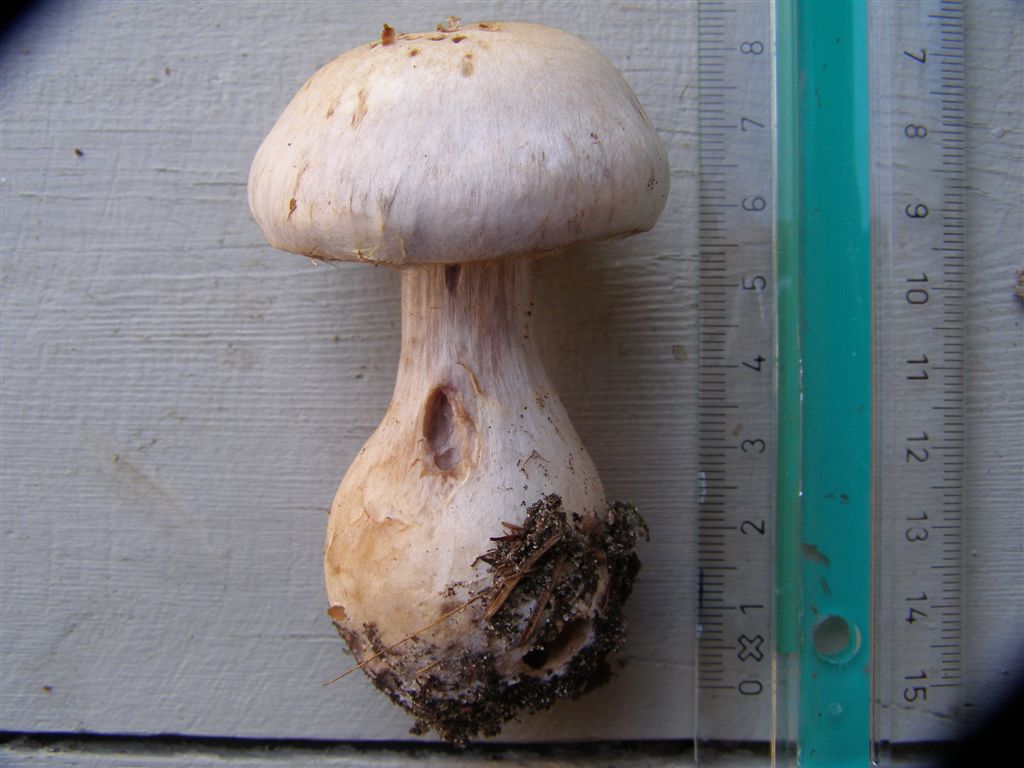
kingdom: Fungi
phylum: Basidiomycota
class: Agaricomycetes
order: Agaricales
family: Cortinariaceae
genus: Cortinarius
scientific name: Cortinarius niveotraganus
